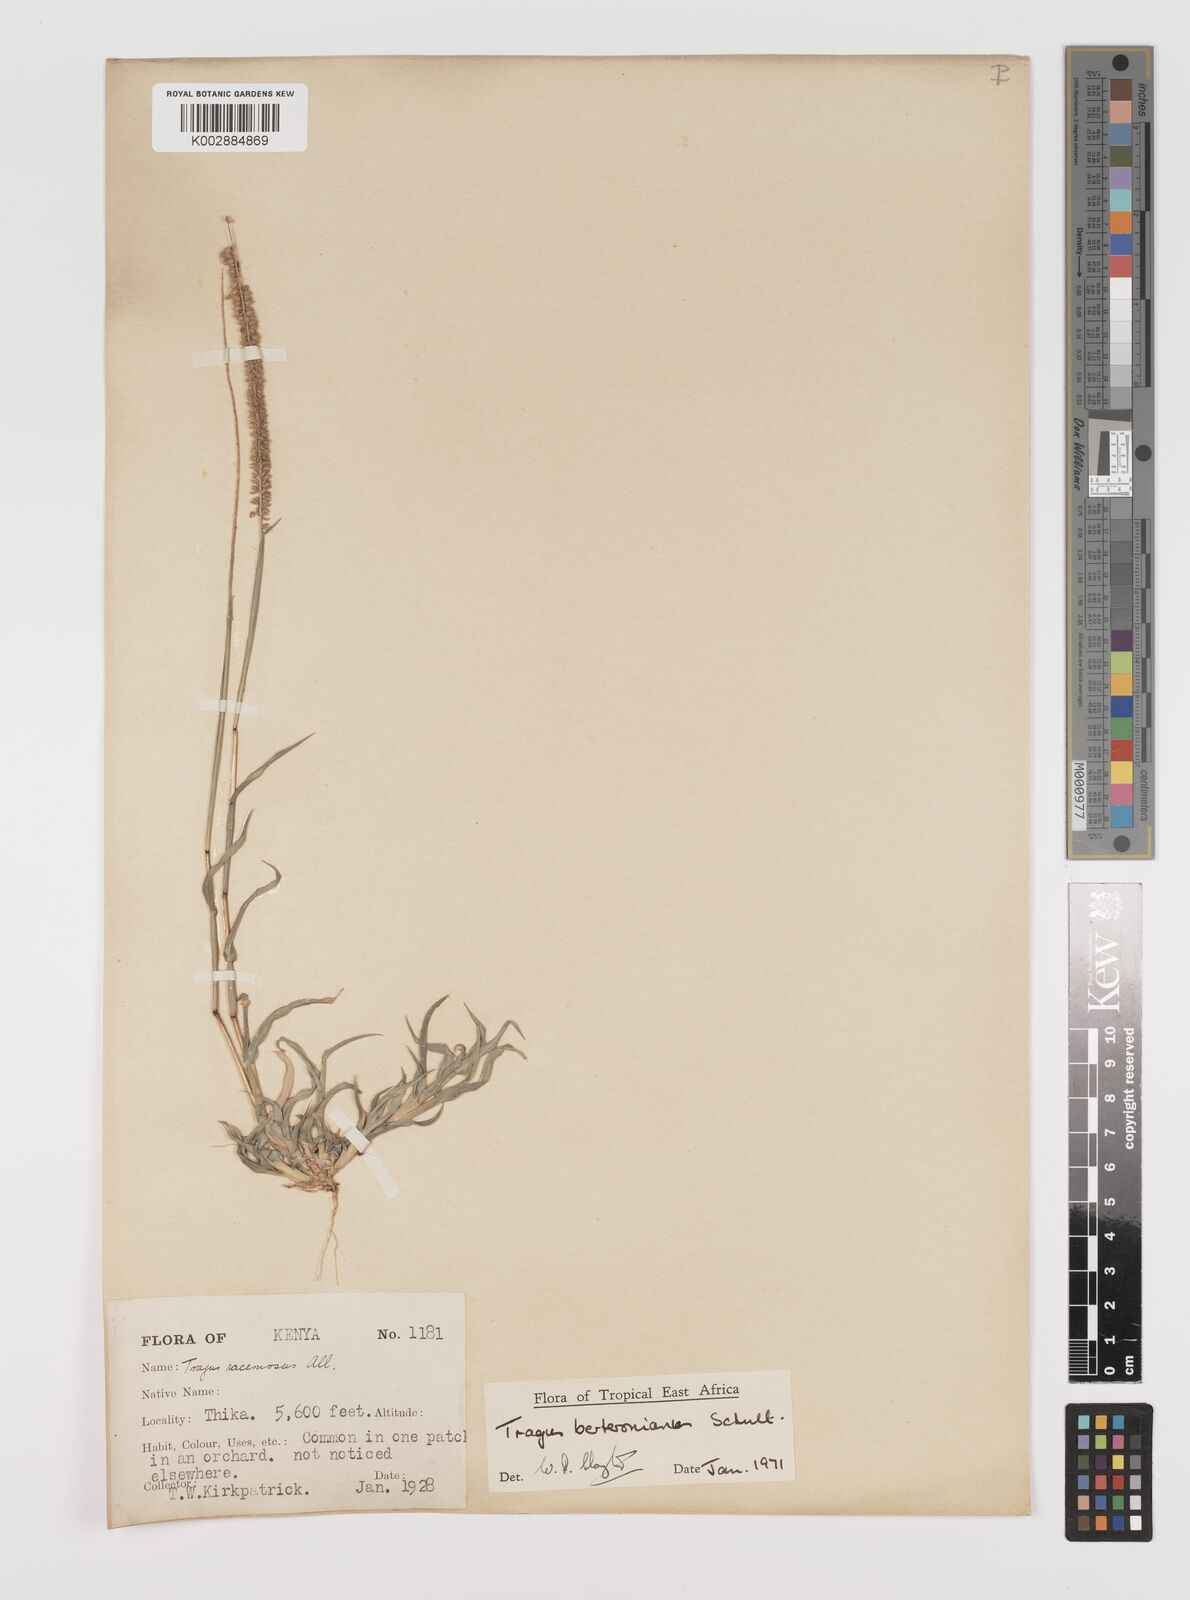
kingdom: Plantae
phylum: Tracheophyta
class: Liliopsida
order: Poales
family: Poaceae
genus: Tragus
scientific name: Tragus berteronianus
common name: African bur-grass
